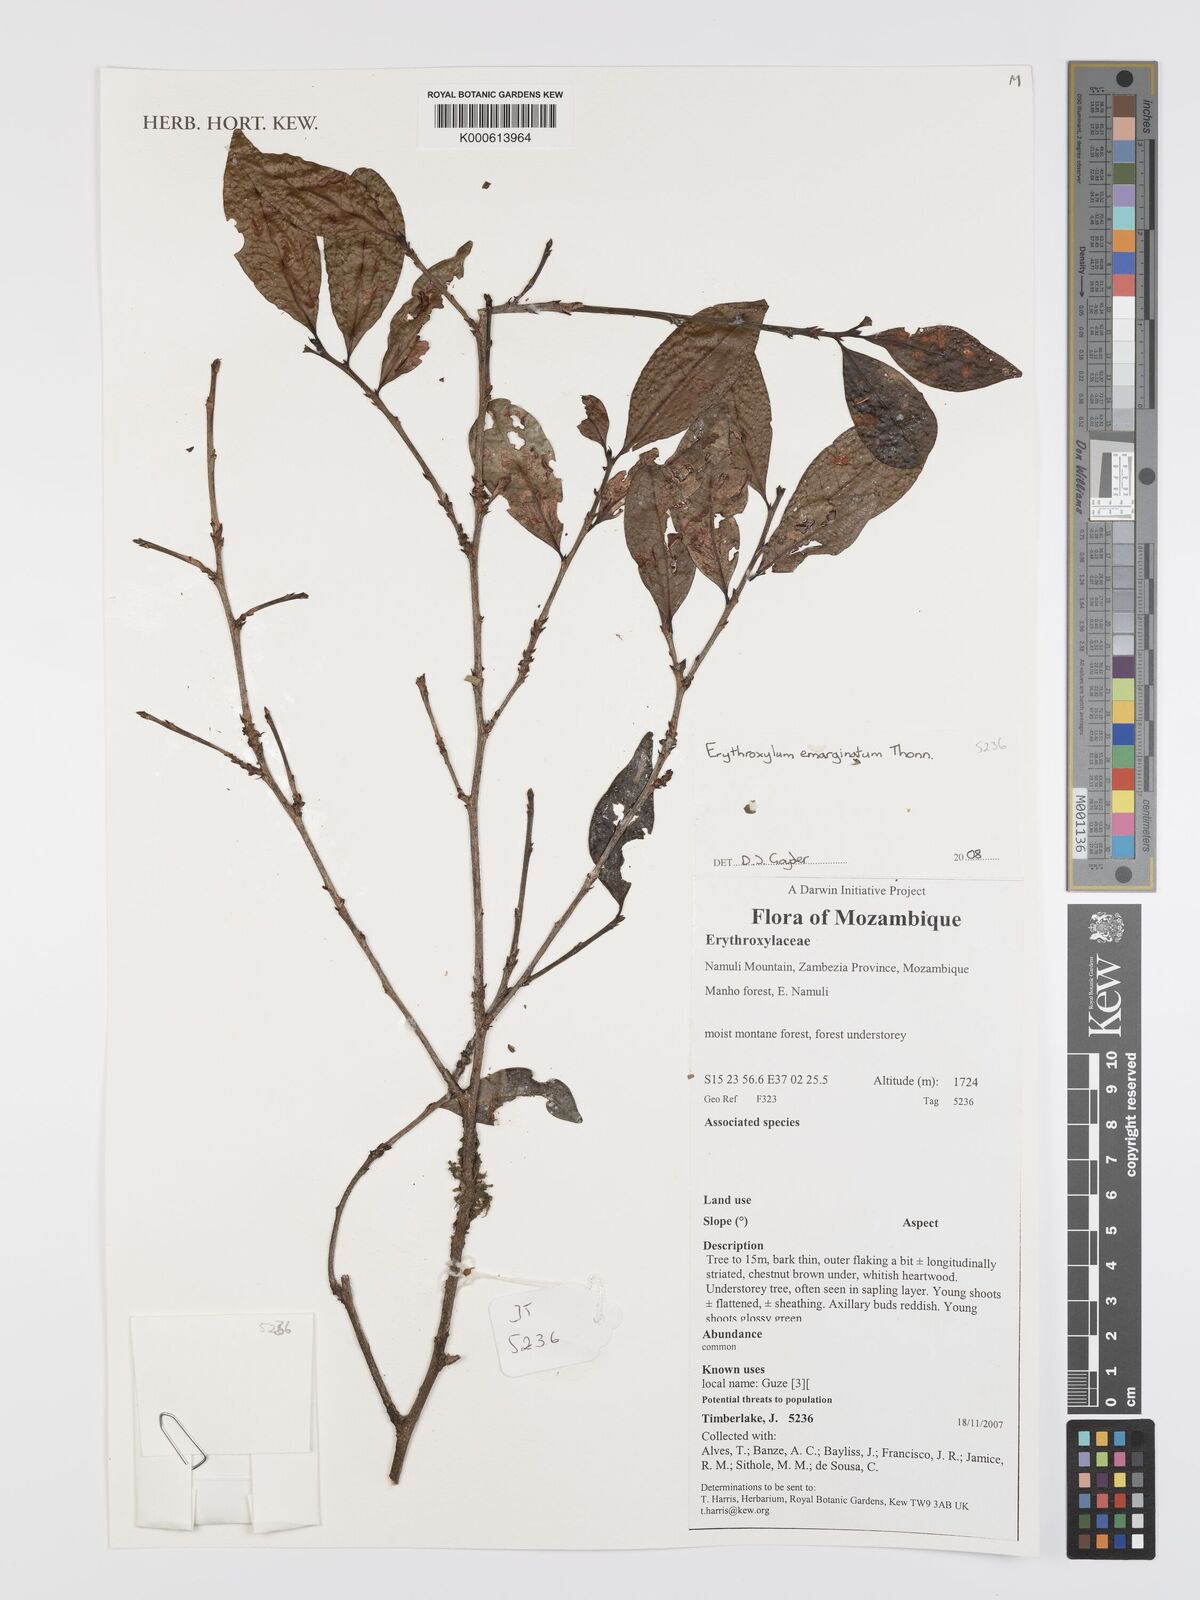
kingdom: Plantae
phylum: Tracheophyta
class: Magnoliopsida
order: Malpighiales
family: Erythroxylaceae
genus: Erythroxylum
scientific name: Erythroxylum emarginatum
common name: African coca-tree
